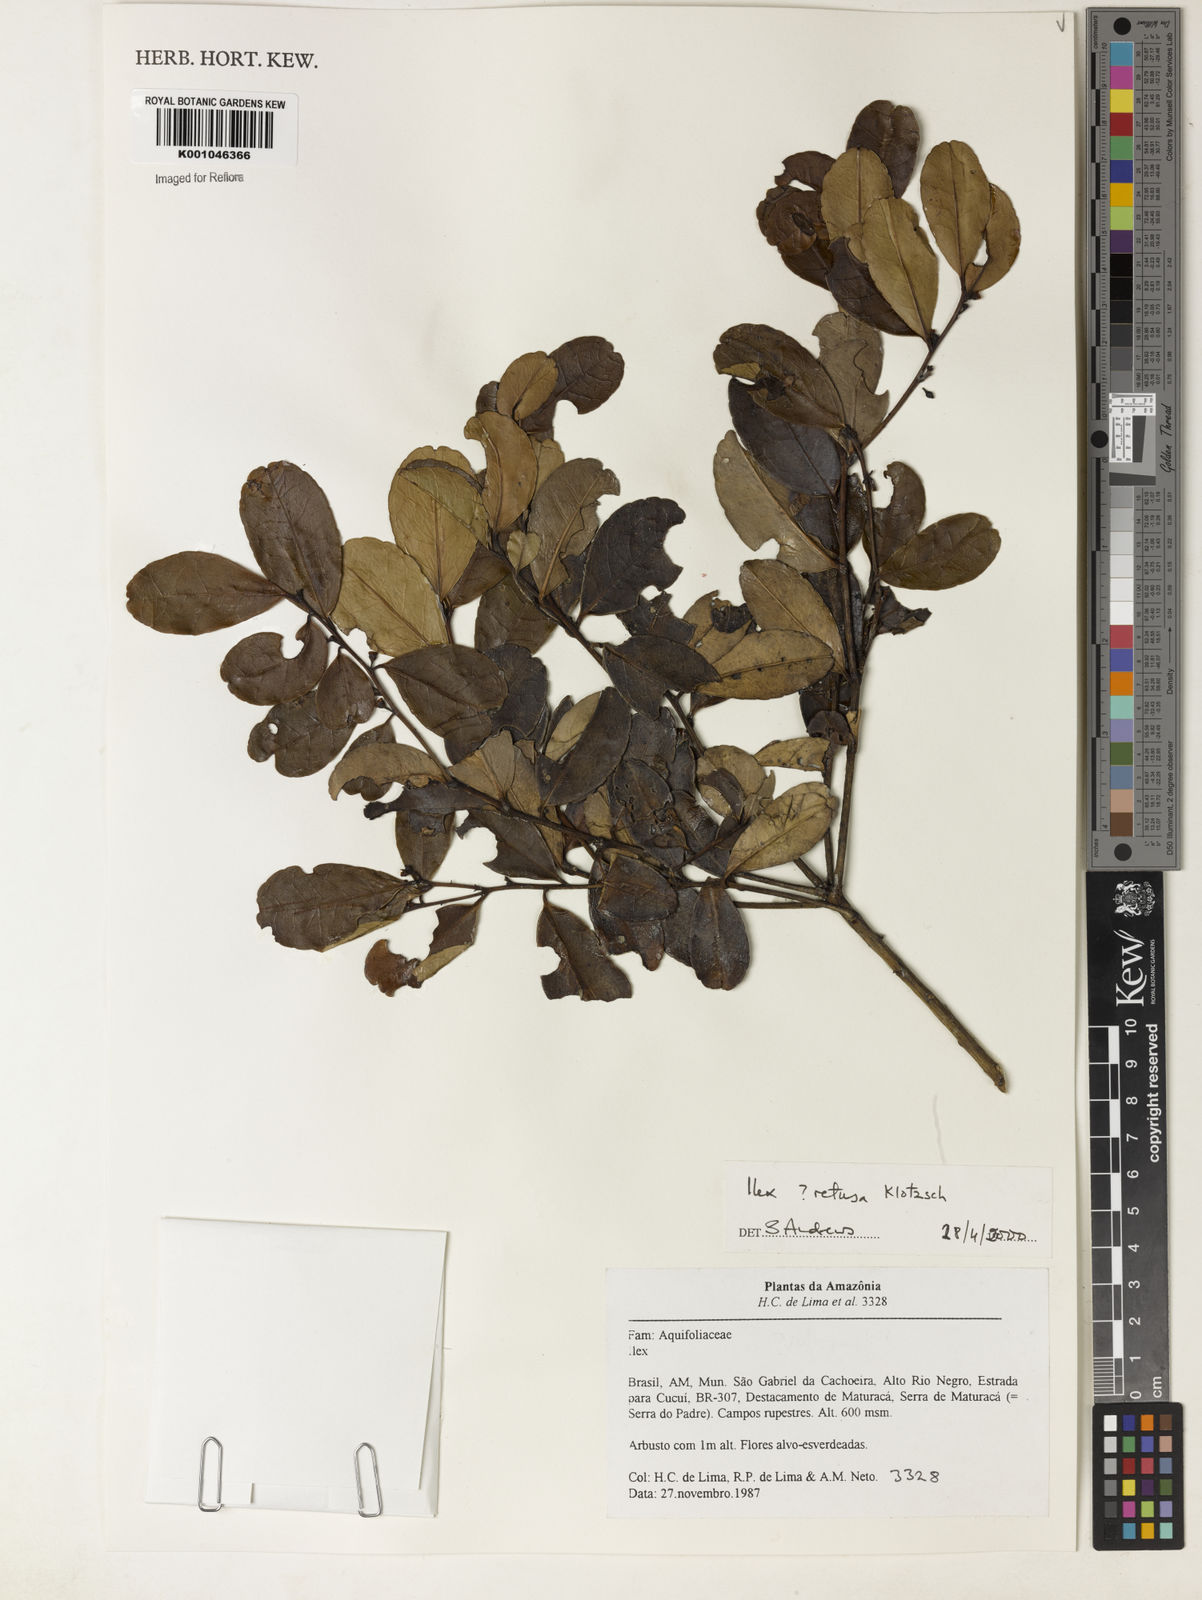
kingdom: Plantae
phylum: Tracheophyta
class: Magnoliopsida
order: Aquifoliales
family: Aquifoliaceae
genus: Ilex
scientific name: Ilex retusa
